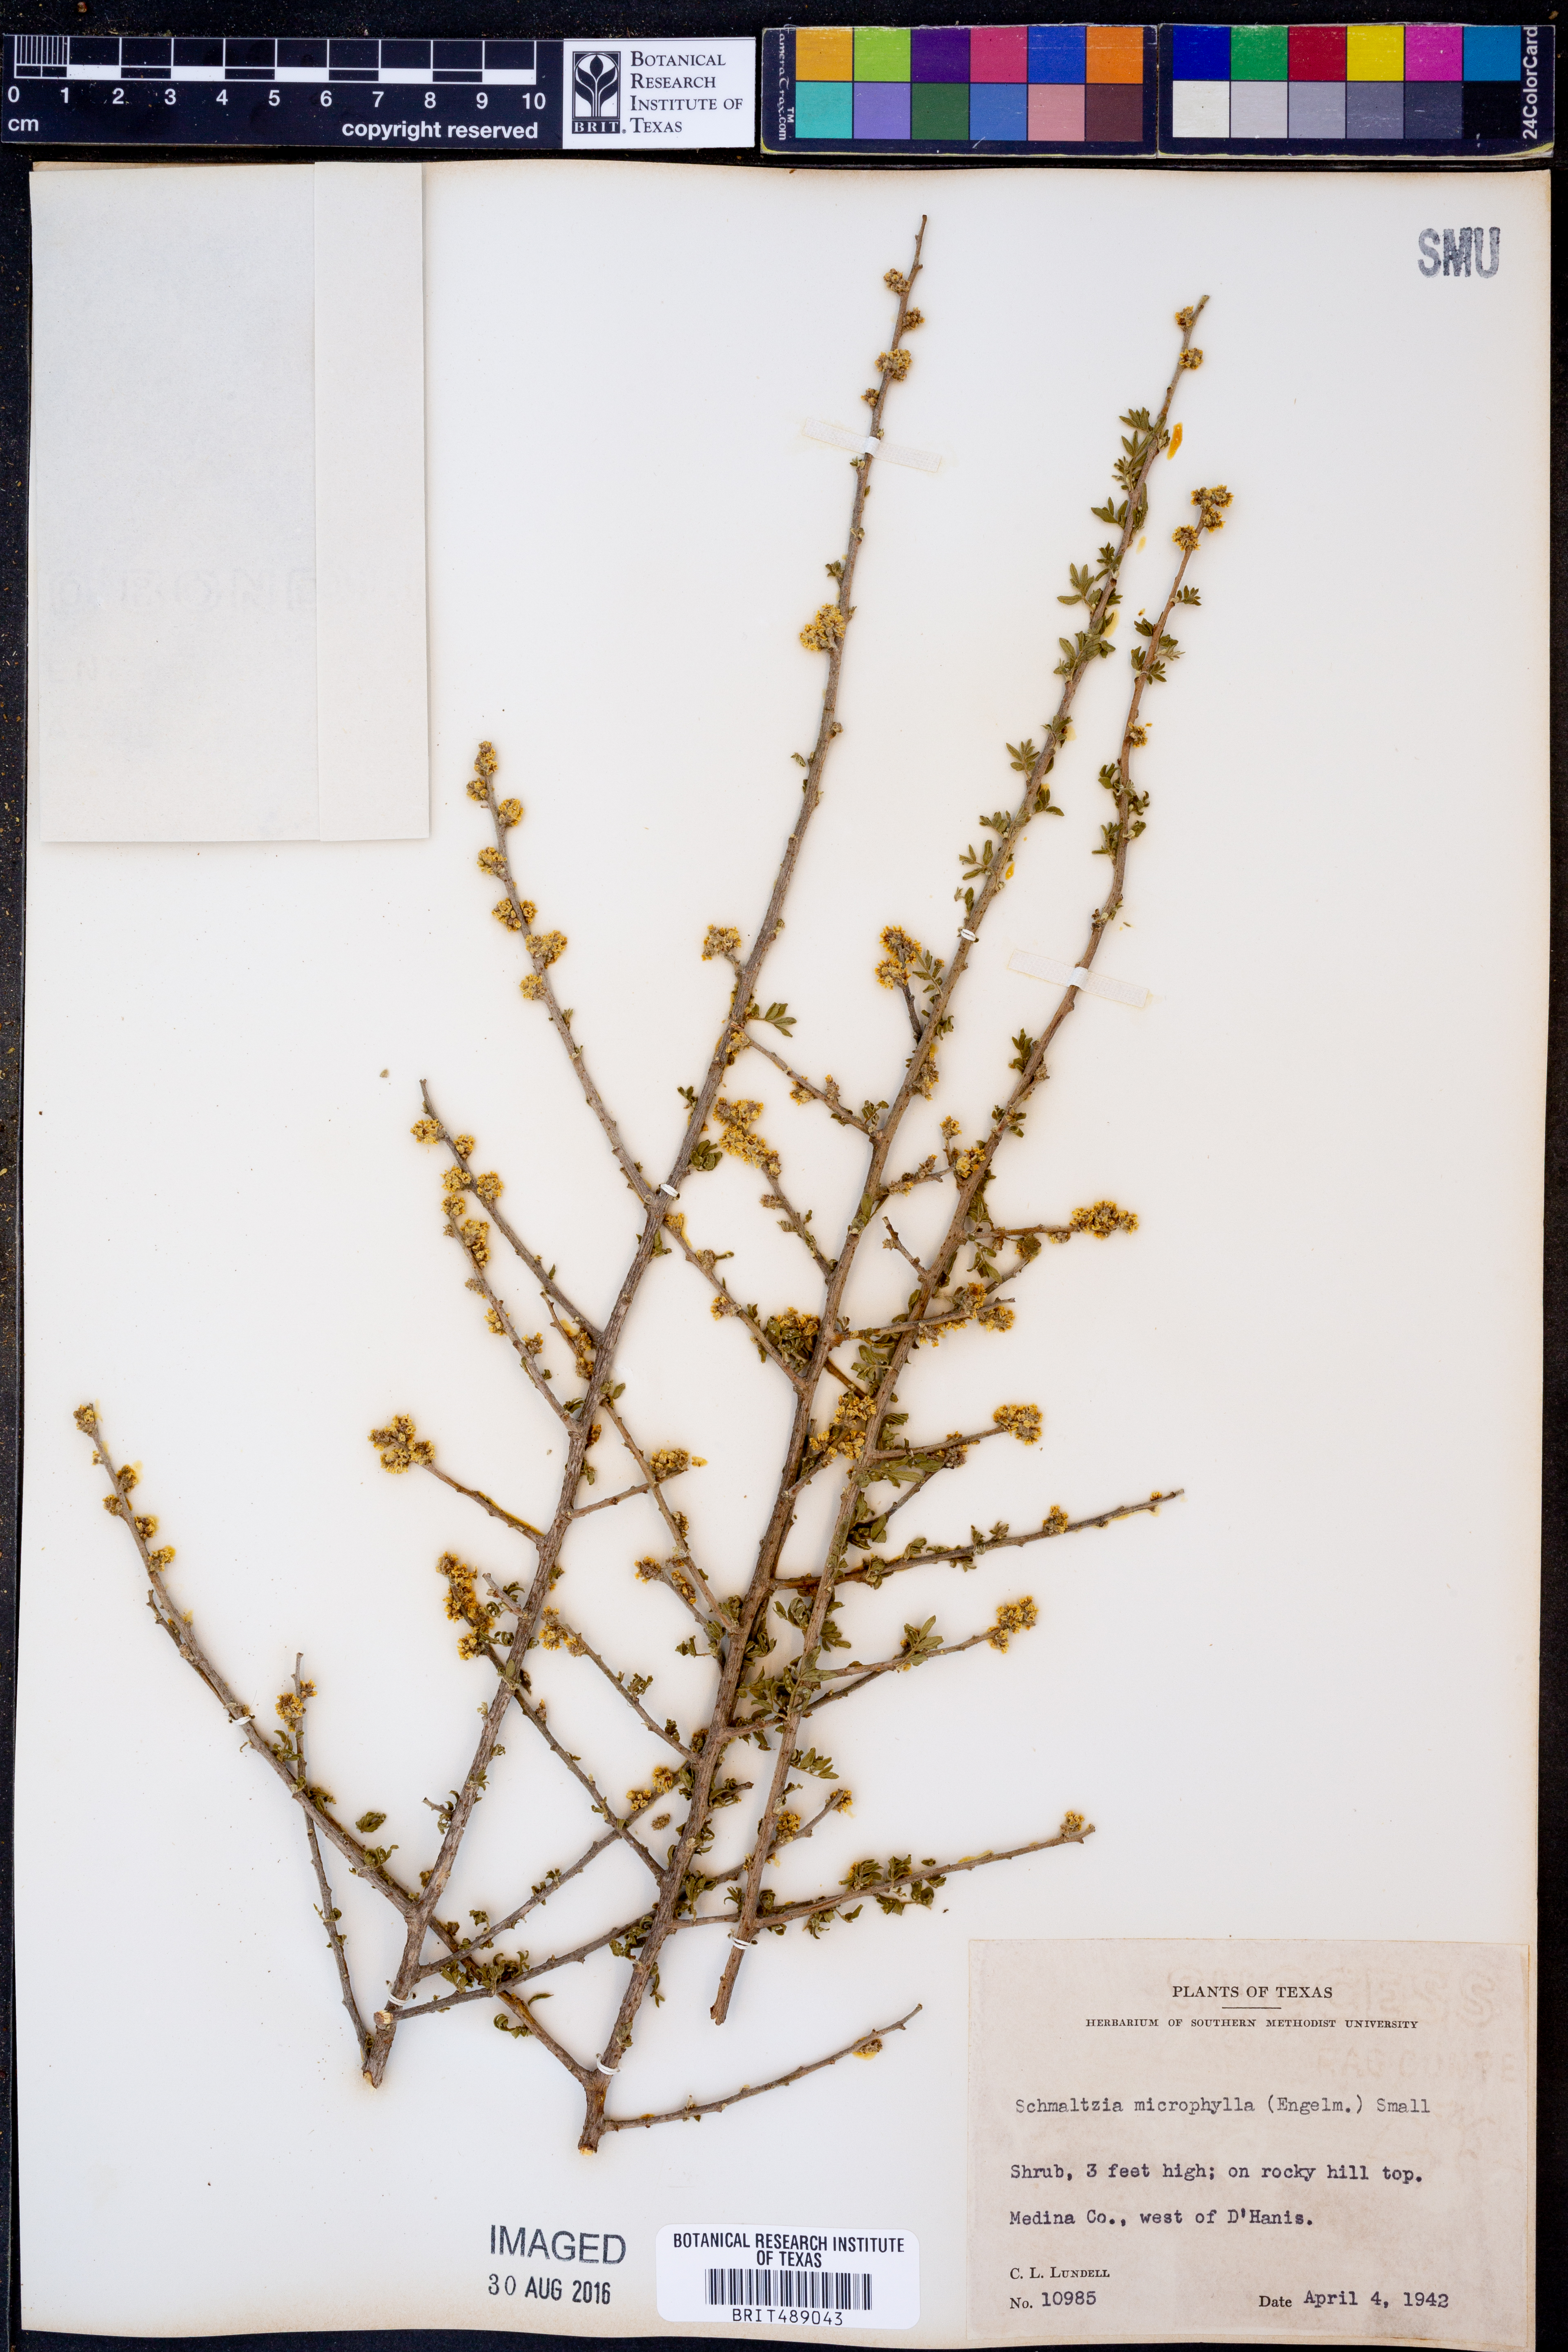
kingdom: Plantae
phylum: Tracheophyta
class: Magnoliopsida
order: Sapindales
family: Anacardiaceae
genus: Rhus
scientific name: Rhus microphylla
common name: Desert sumac
